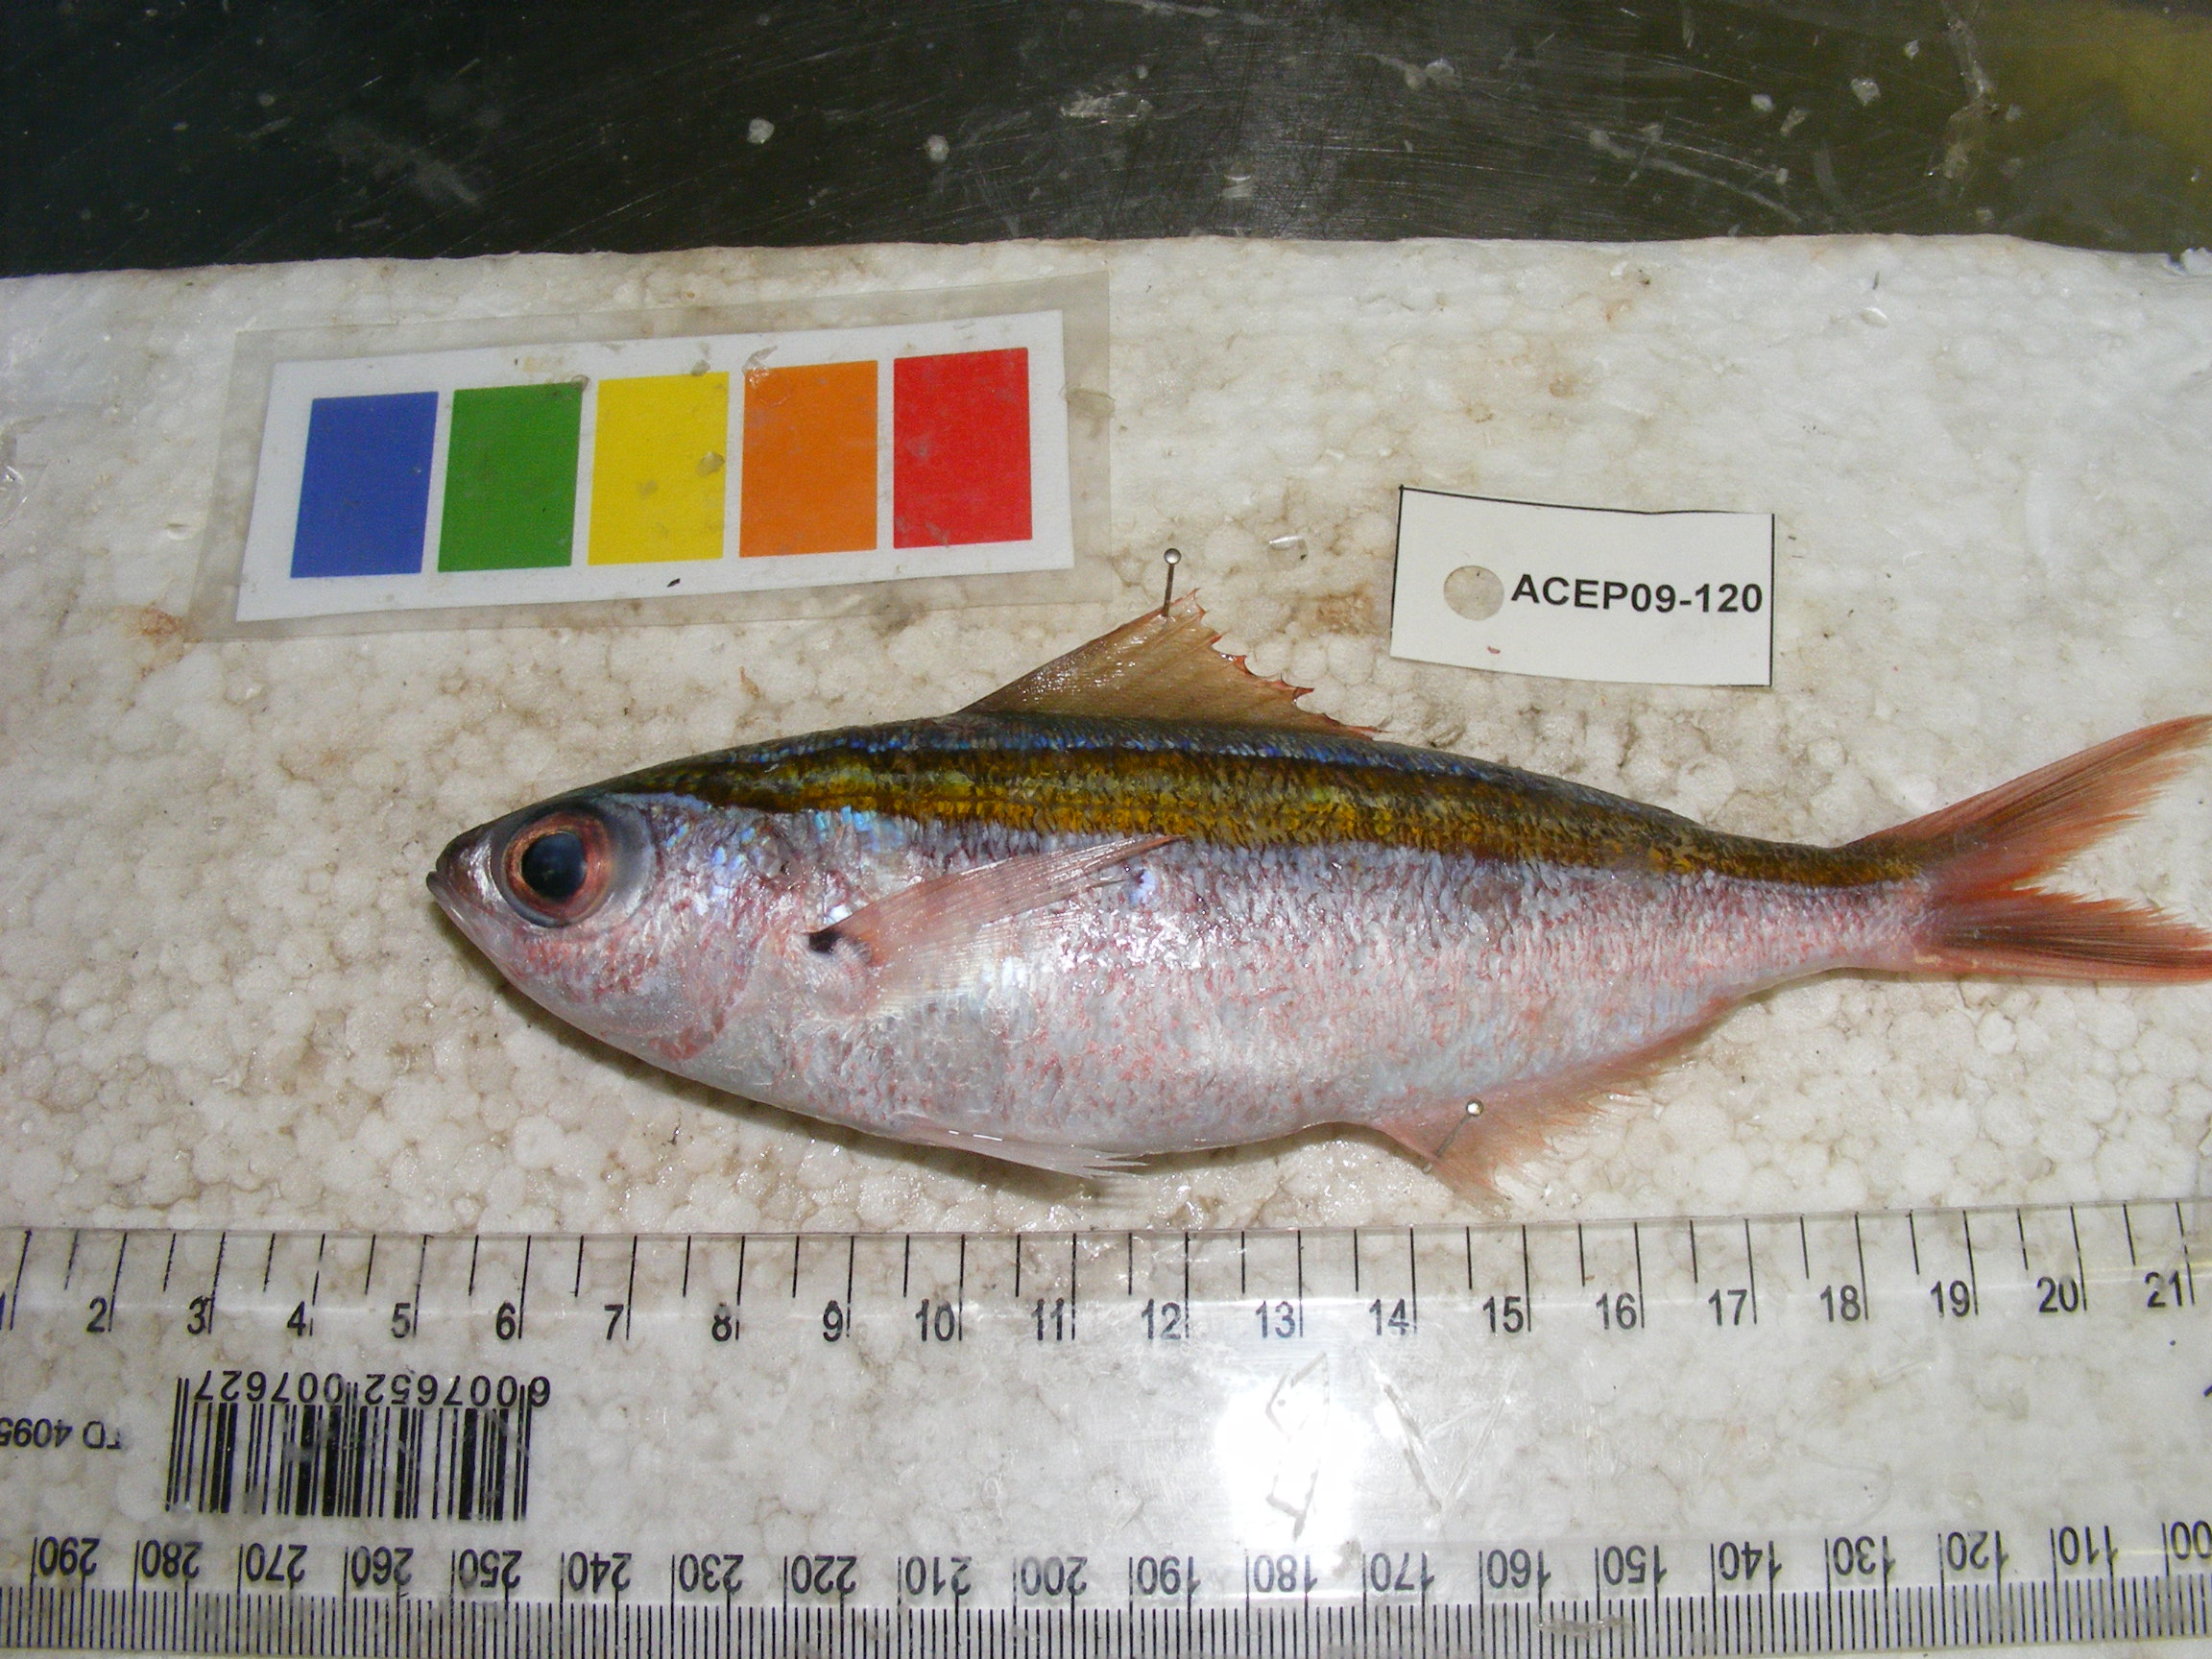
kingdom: Animalia
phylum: Chordata
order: Perciformes
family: Caesionidae
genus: Caesio
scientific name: Caesio
